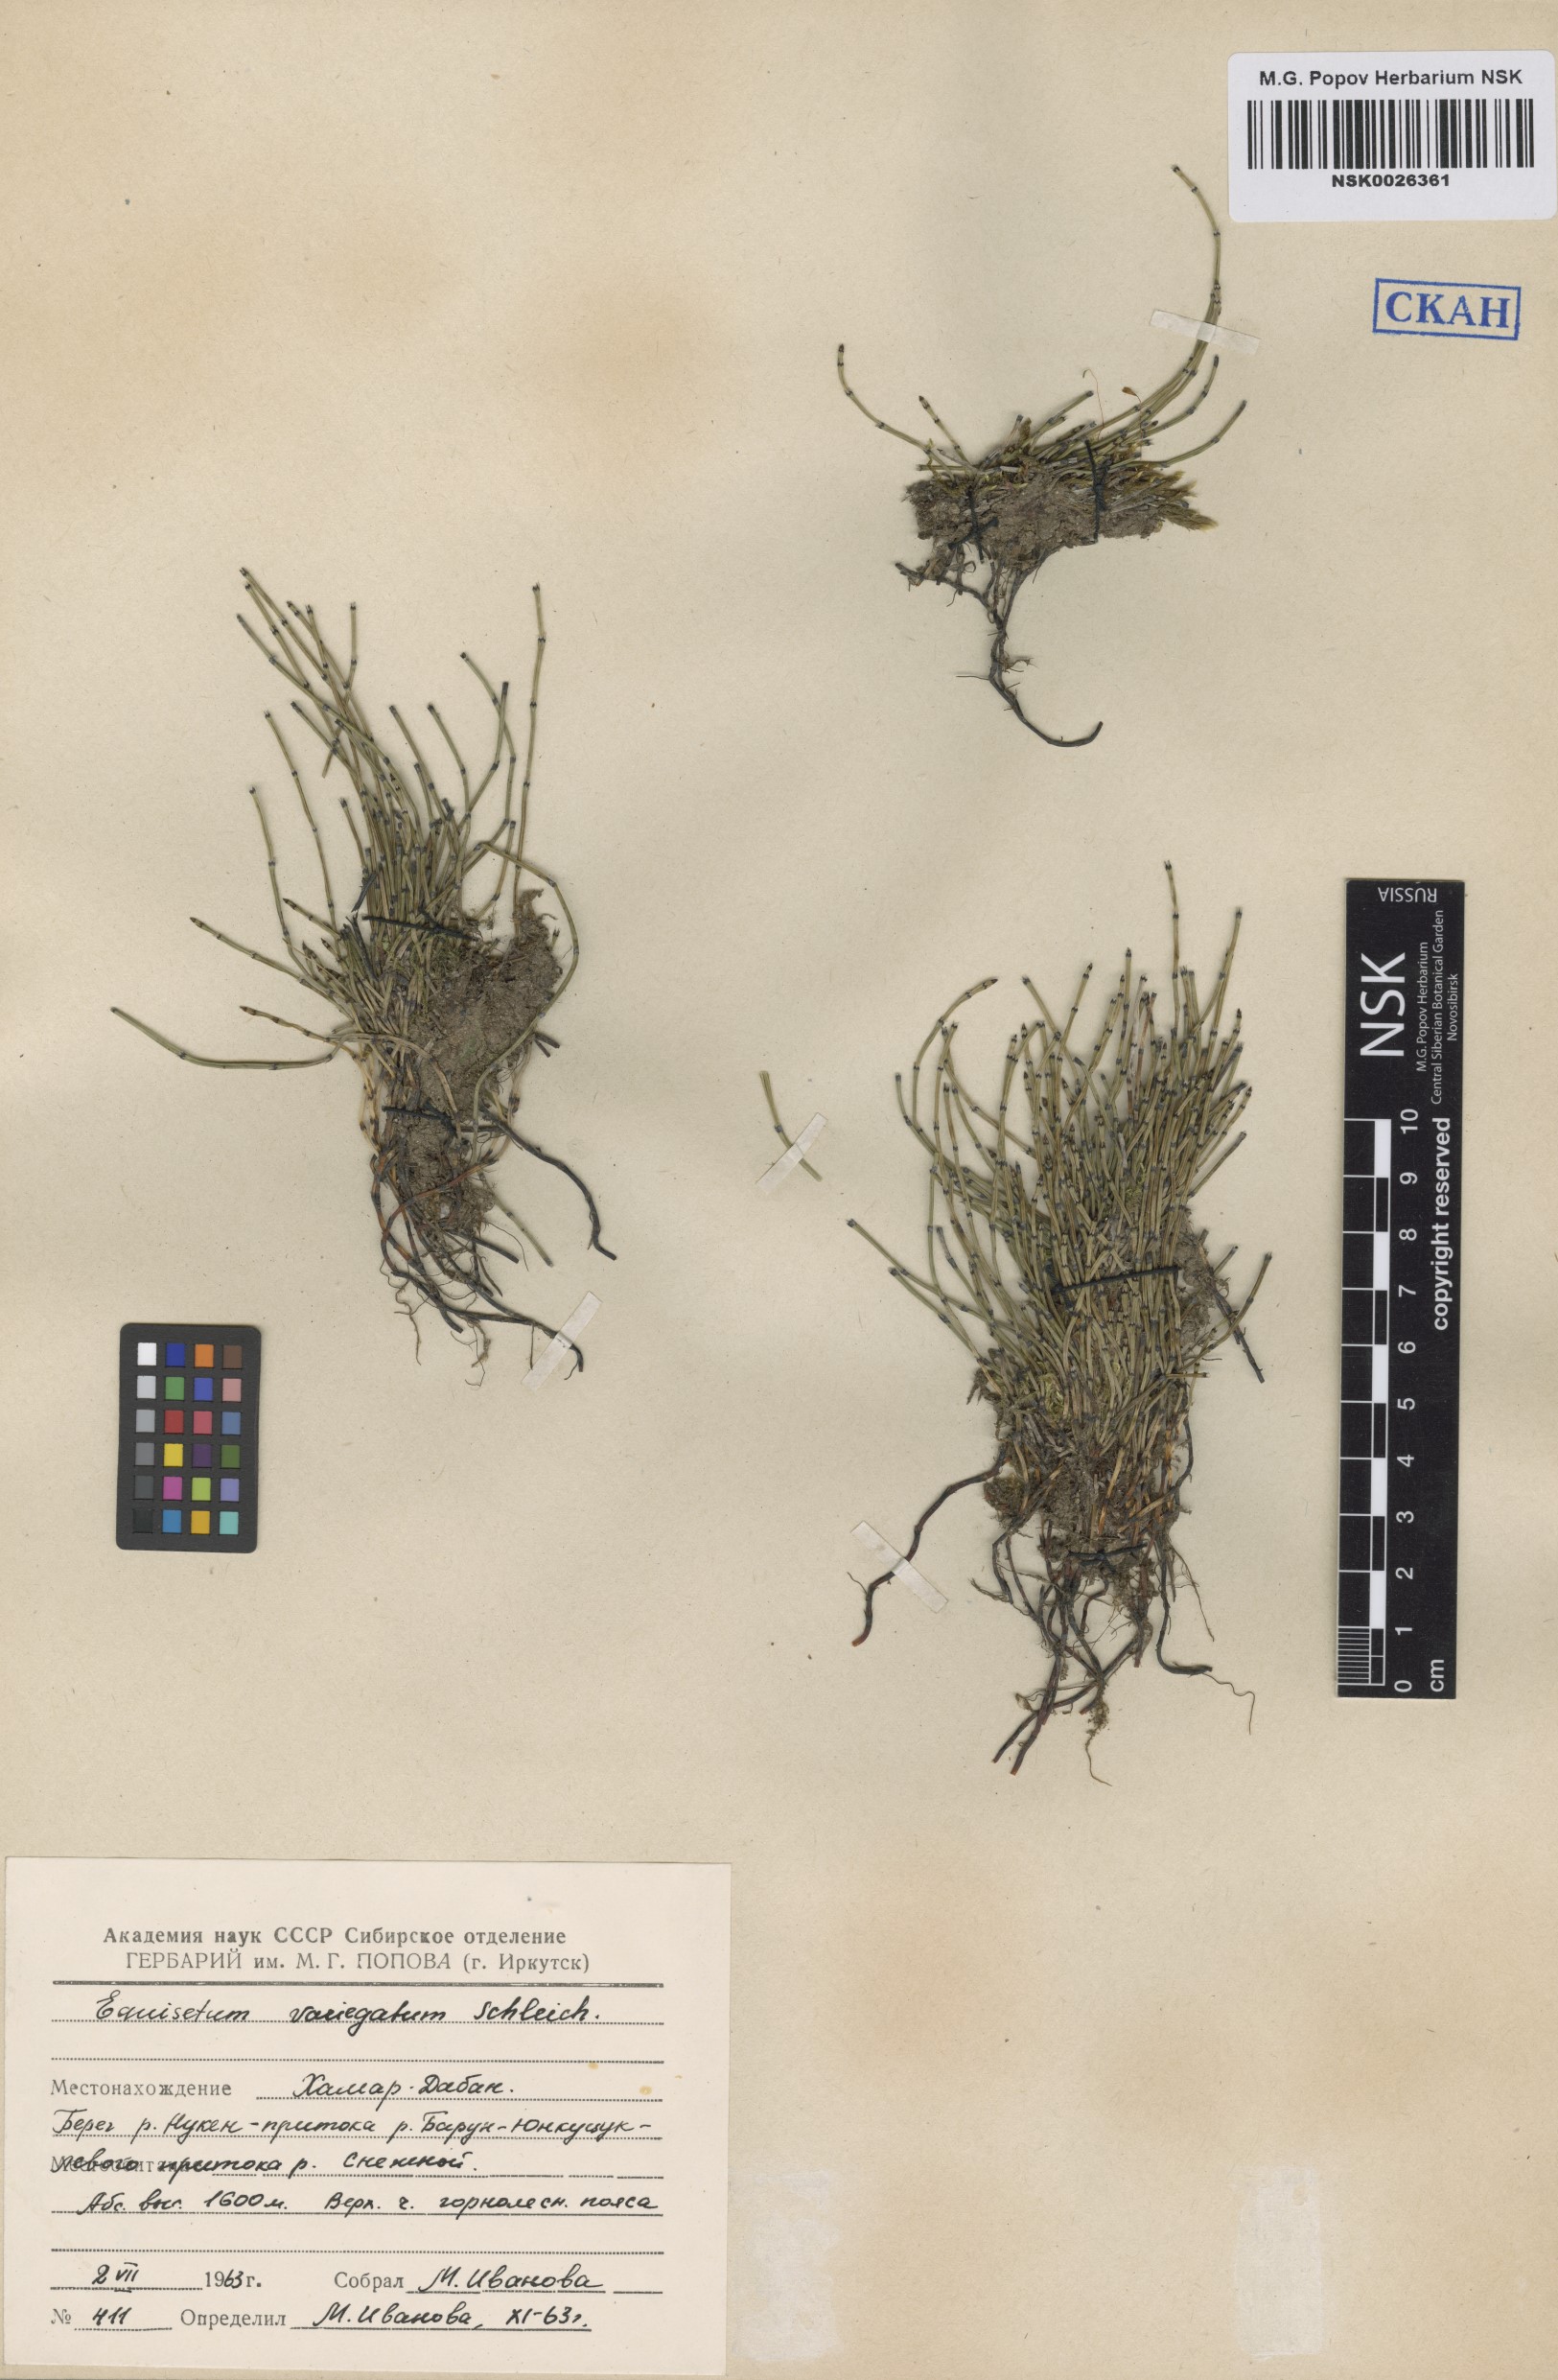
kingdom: Plantae
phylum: Tracheophyta
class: Polypodiopsida
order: Equisetales
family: Equisetaceae
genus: Equisetum
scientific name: Equisetum variegatum
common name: Variegated horsetail
